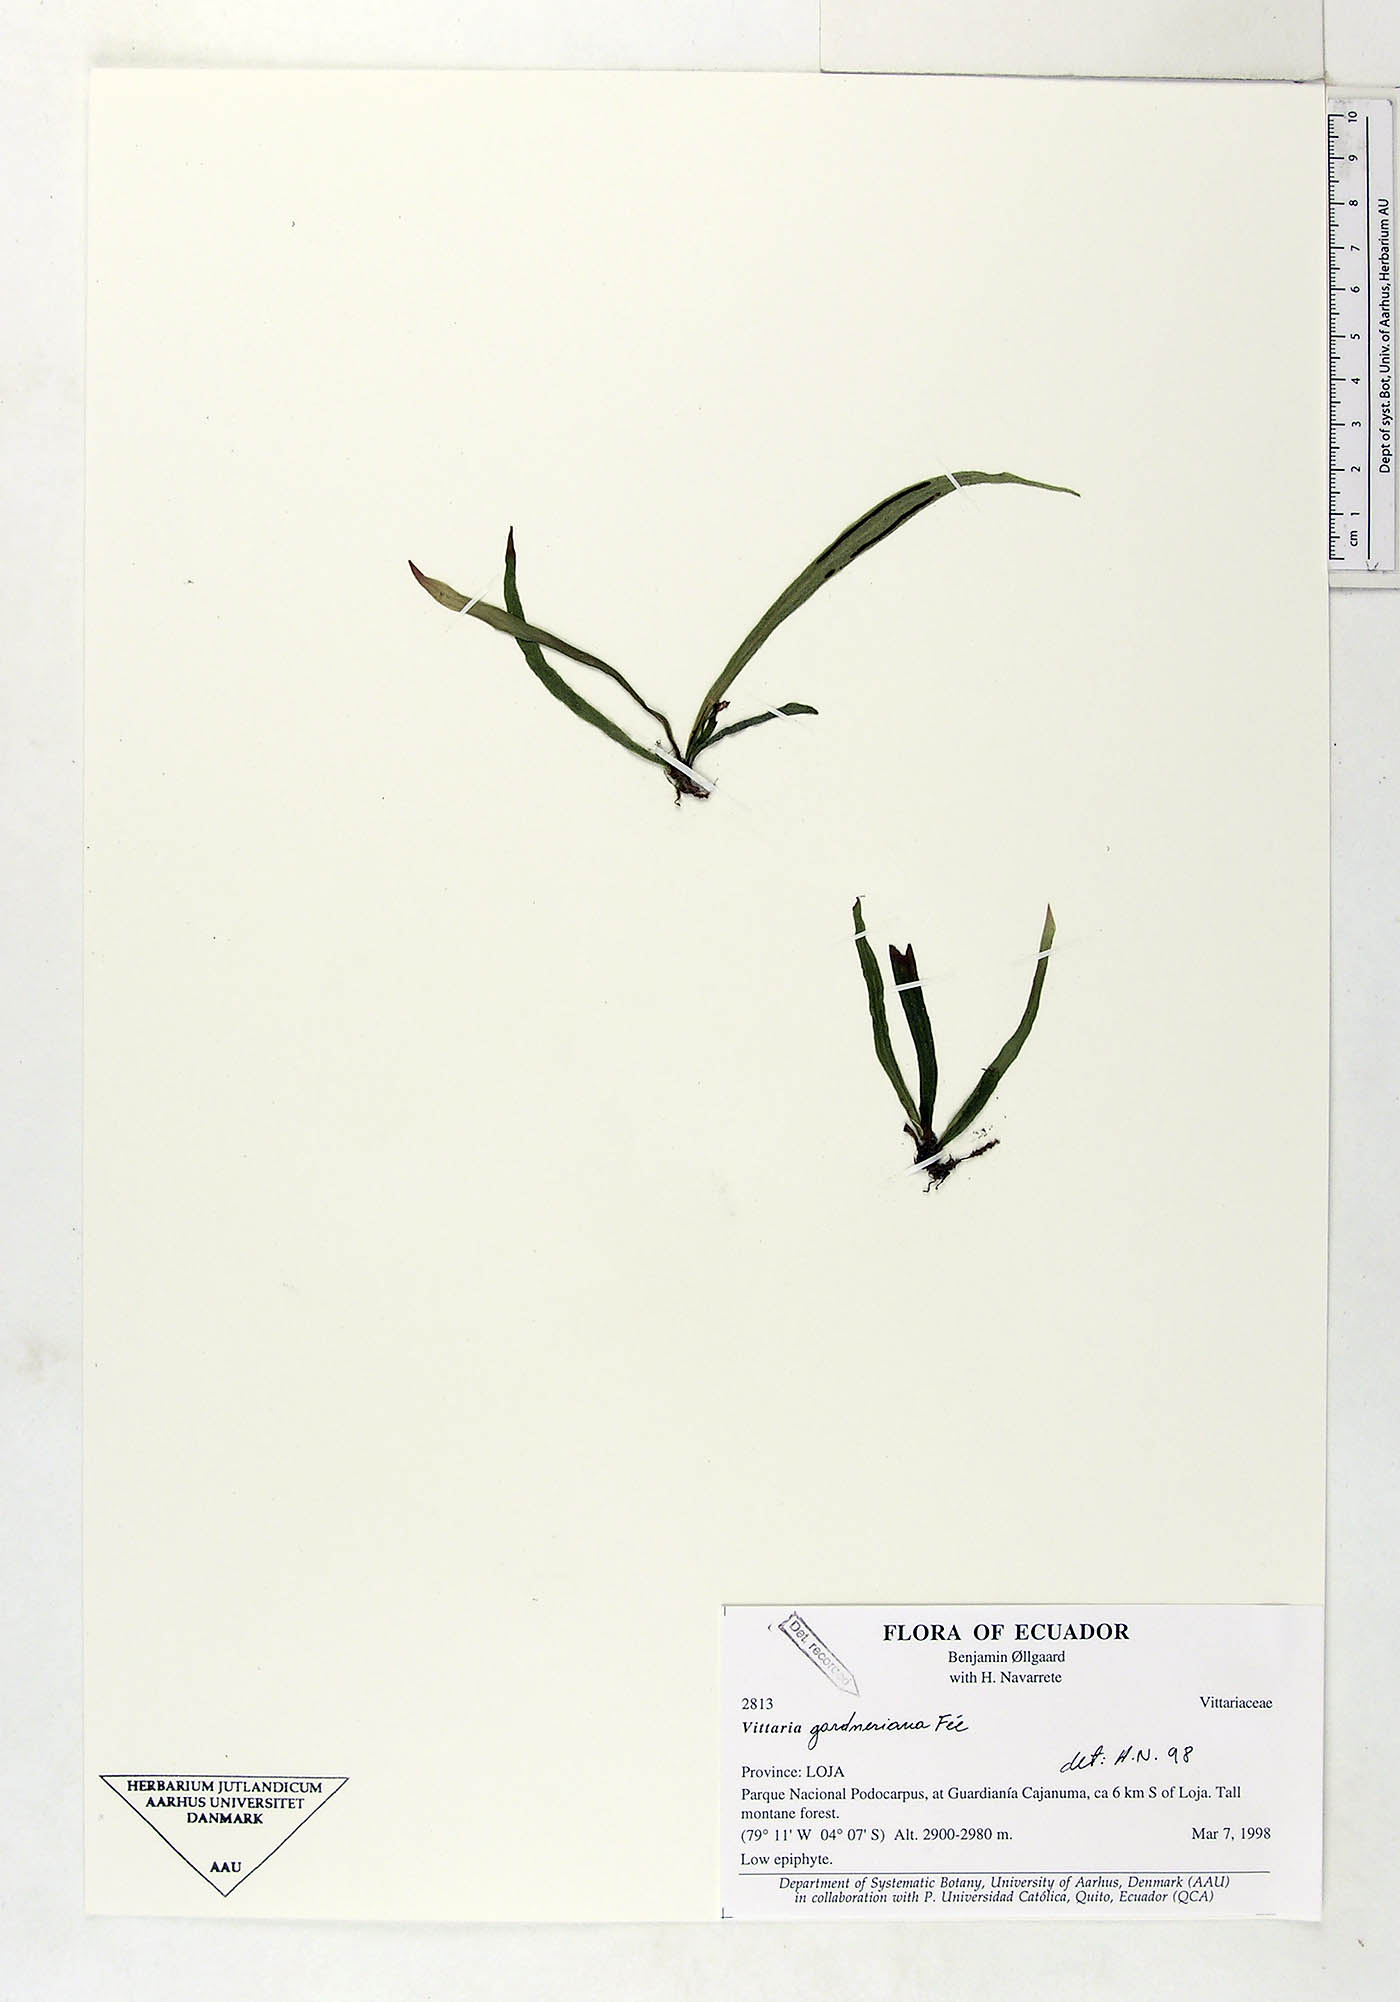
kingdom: Plantae
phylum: Tracheophyta
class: Polypodiopsida
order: Polypodiales
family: Pteridaceae
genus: Radiovittaria
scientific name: Radiovittaria gardneriana
